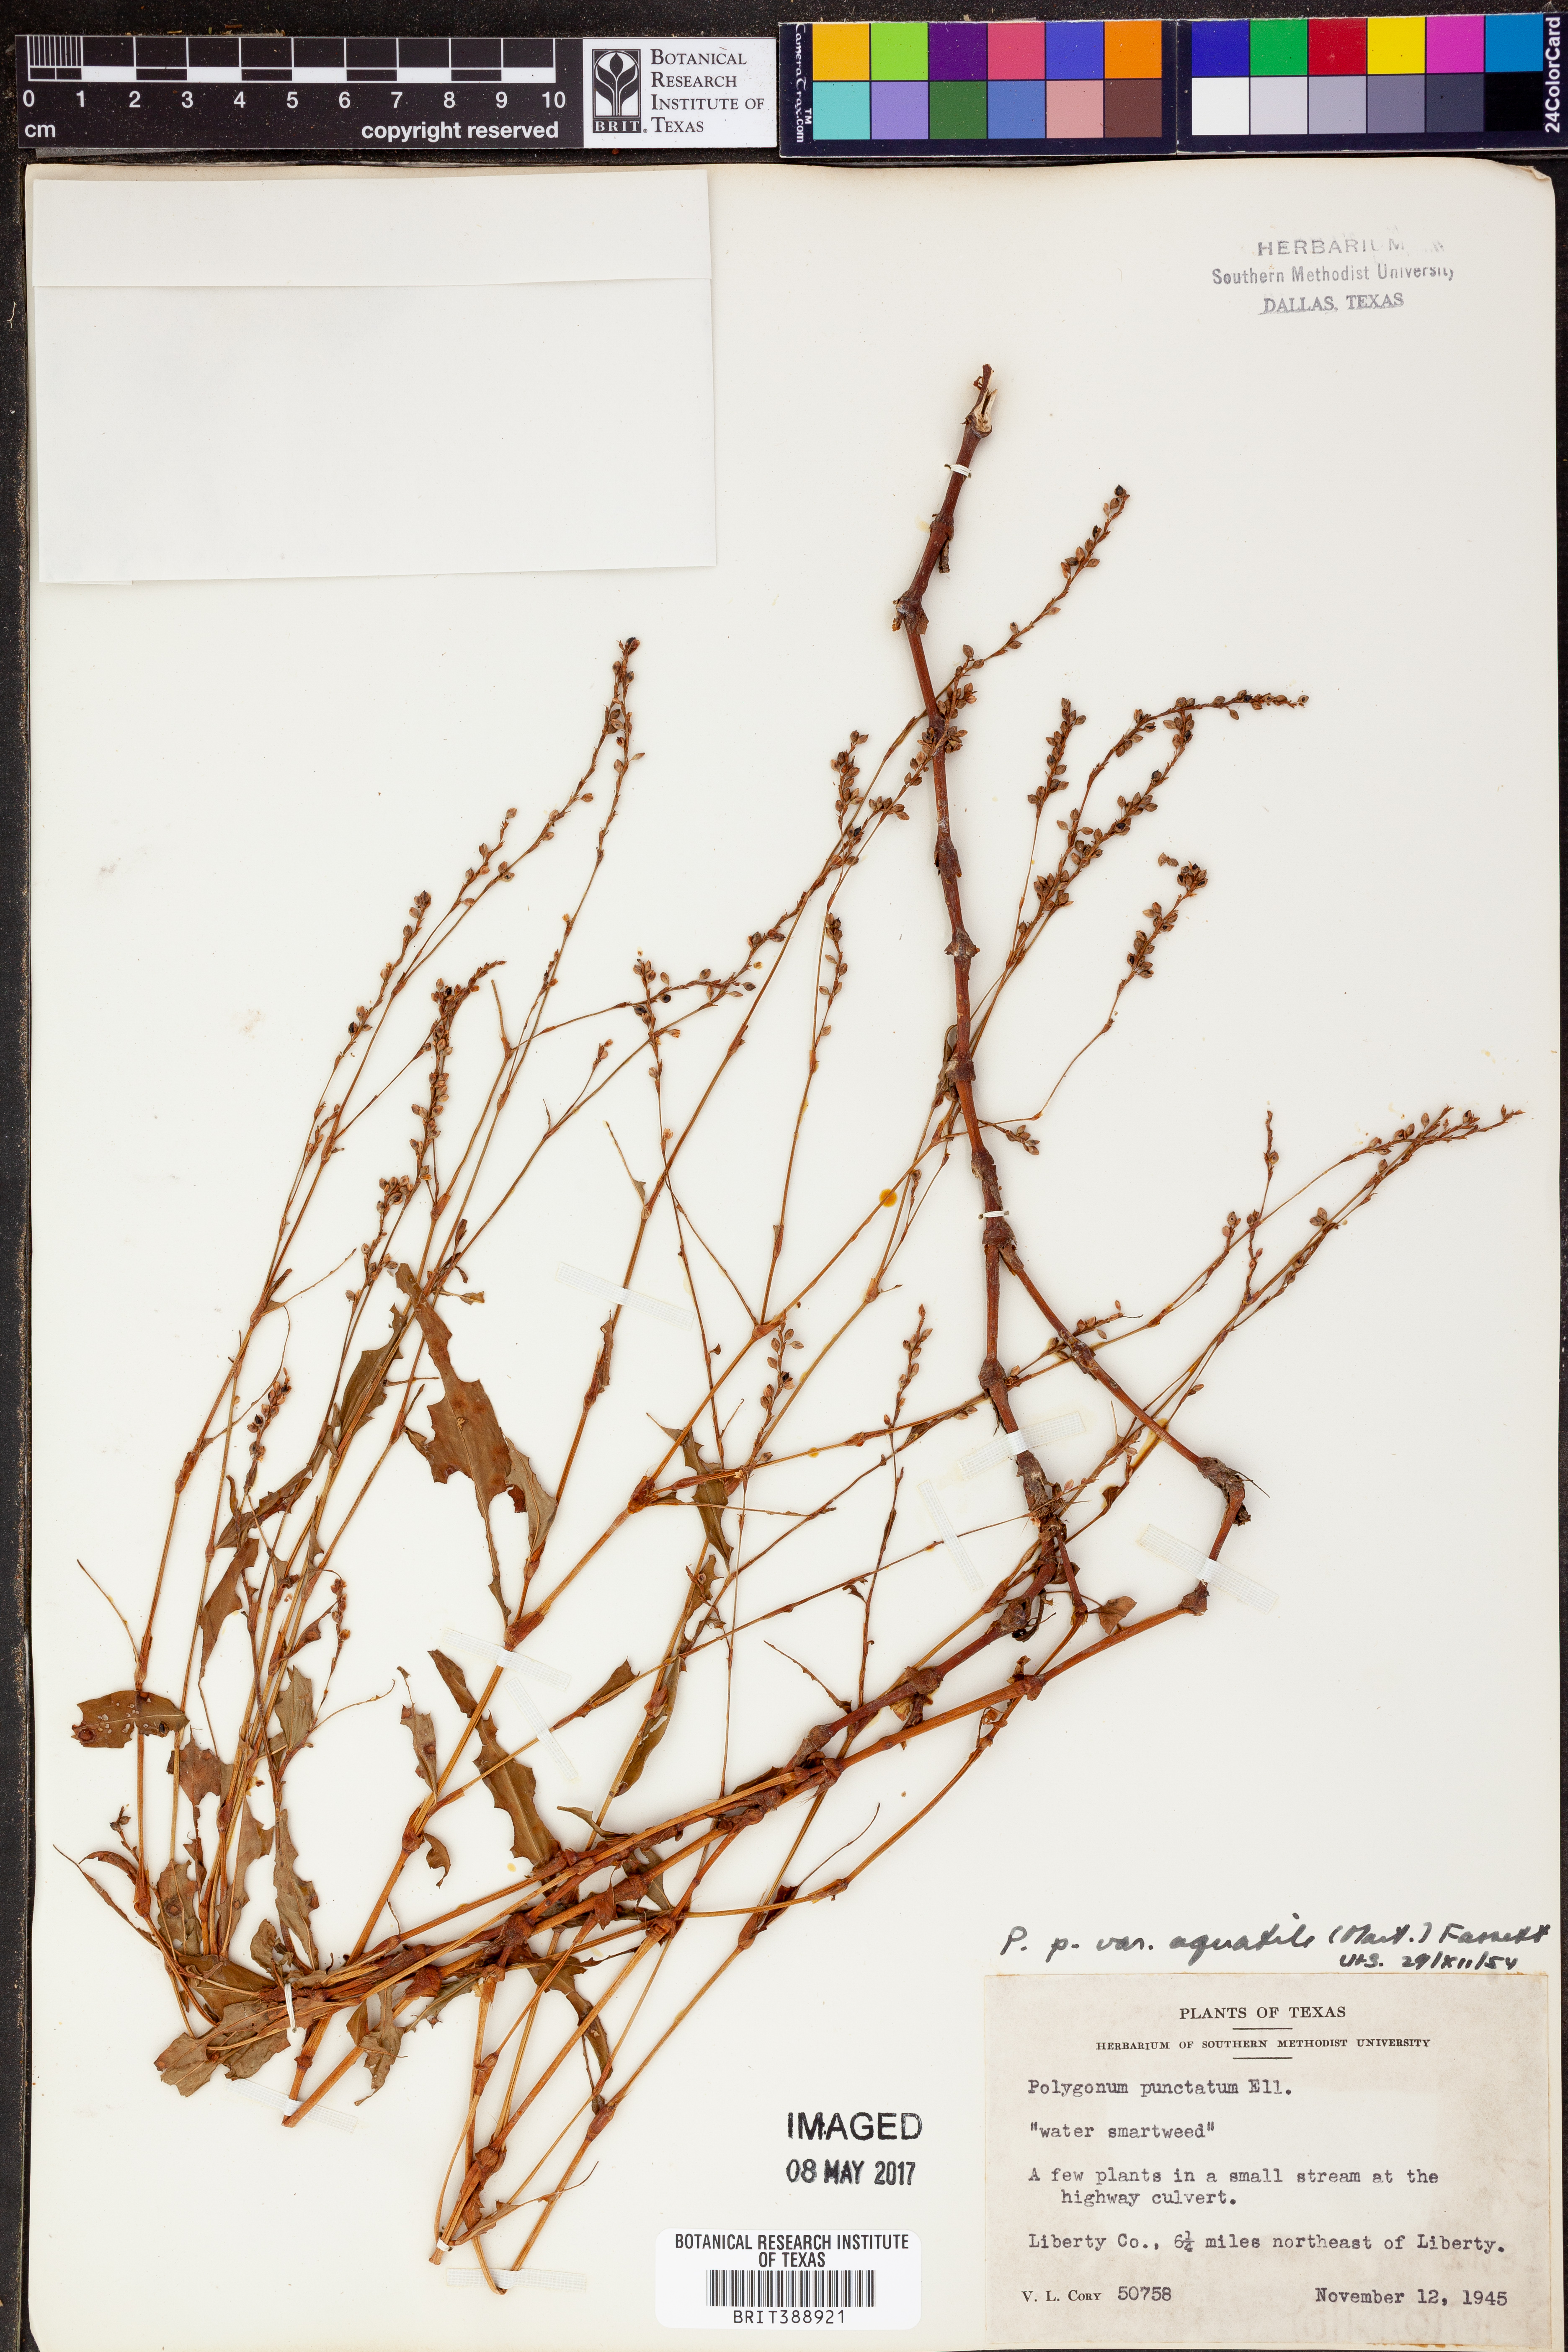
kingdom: Plantae
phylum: Tracheophyta
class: Magnoliopsida
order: Caryophyllales
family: Polygonaceae
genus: Persicaria
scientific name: Persicaria punctata
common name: Dotted smartweed
